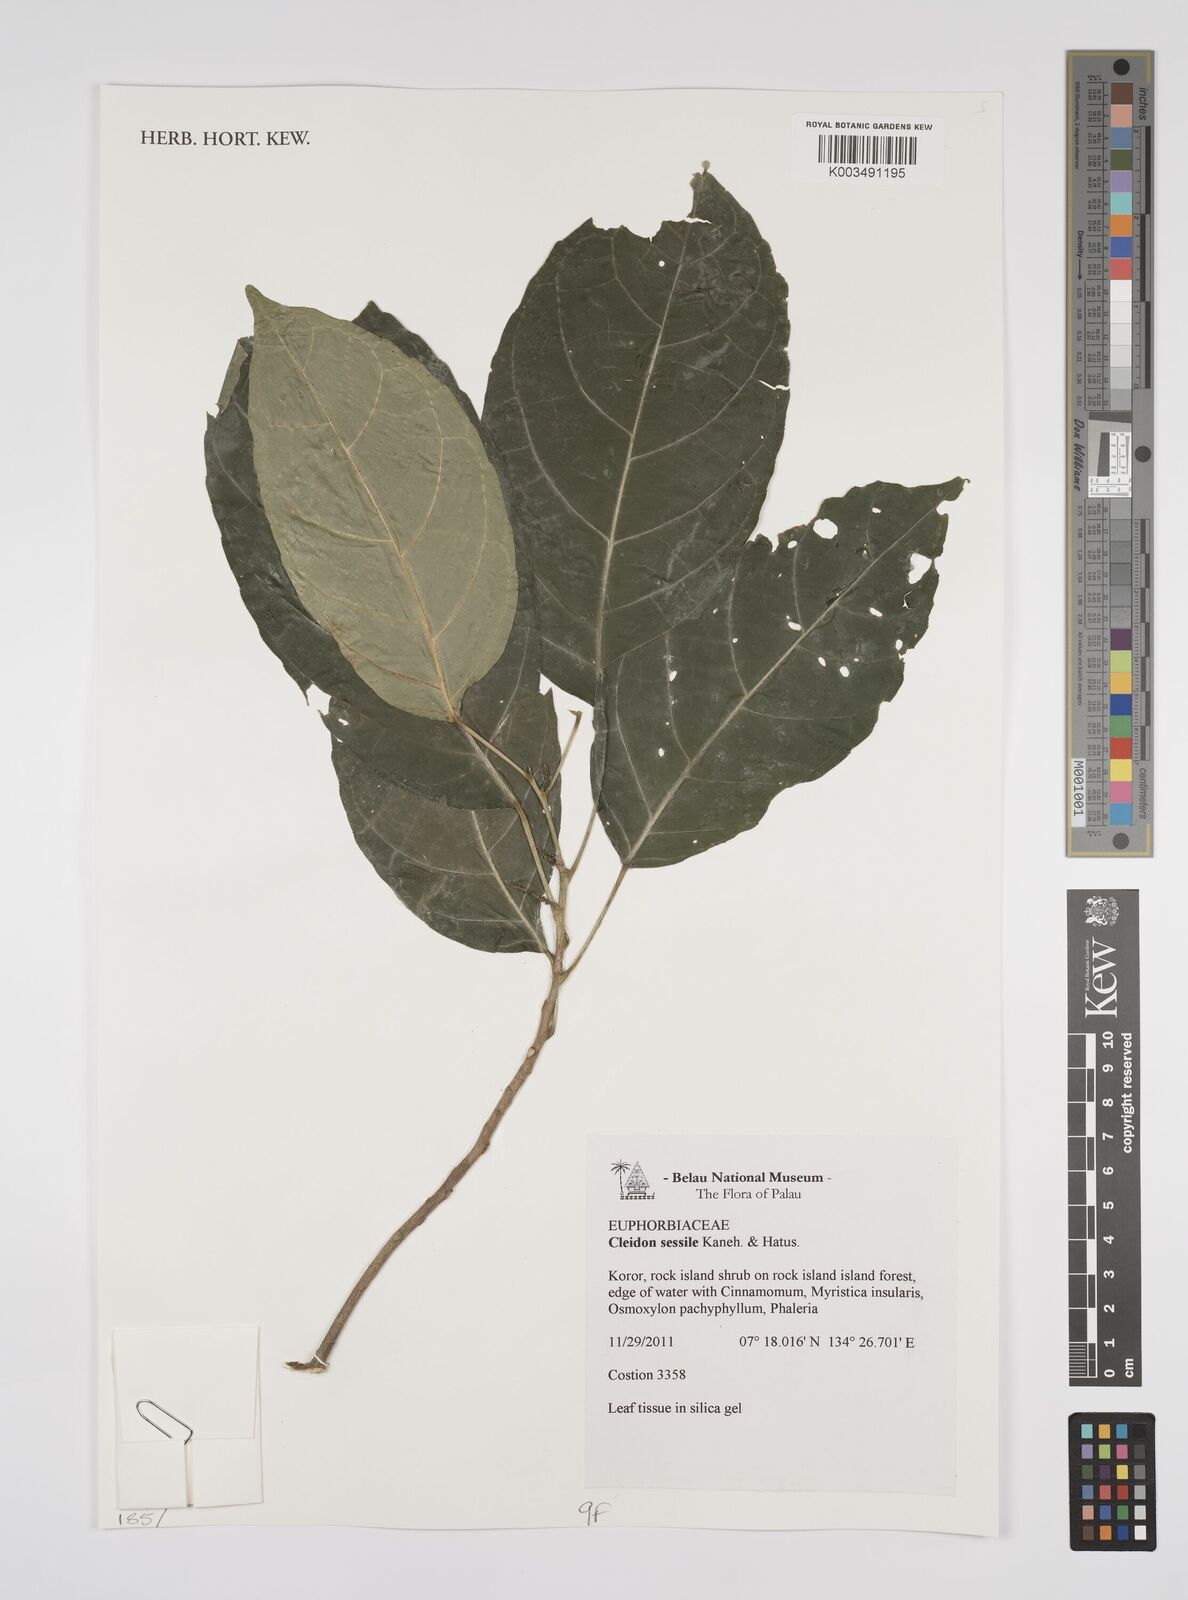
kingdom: Plantae
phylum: Tracheophyta
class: Magnoliopsida
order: Malpighiales
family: Euphorbiaceae
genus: Cleidion
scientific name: Cleidion sessile
